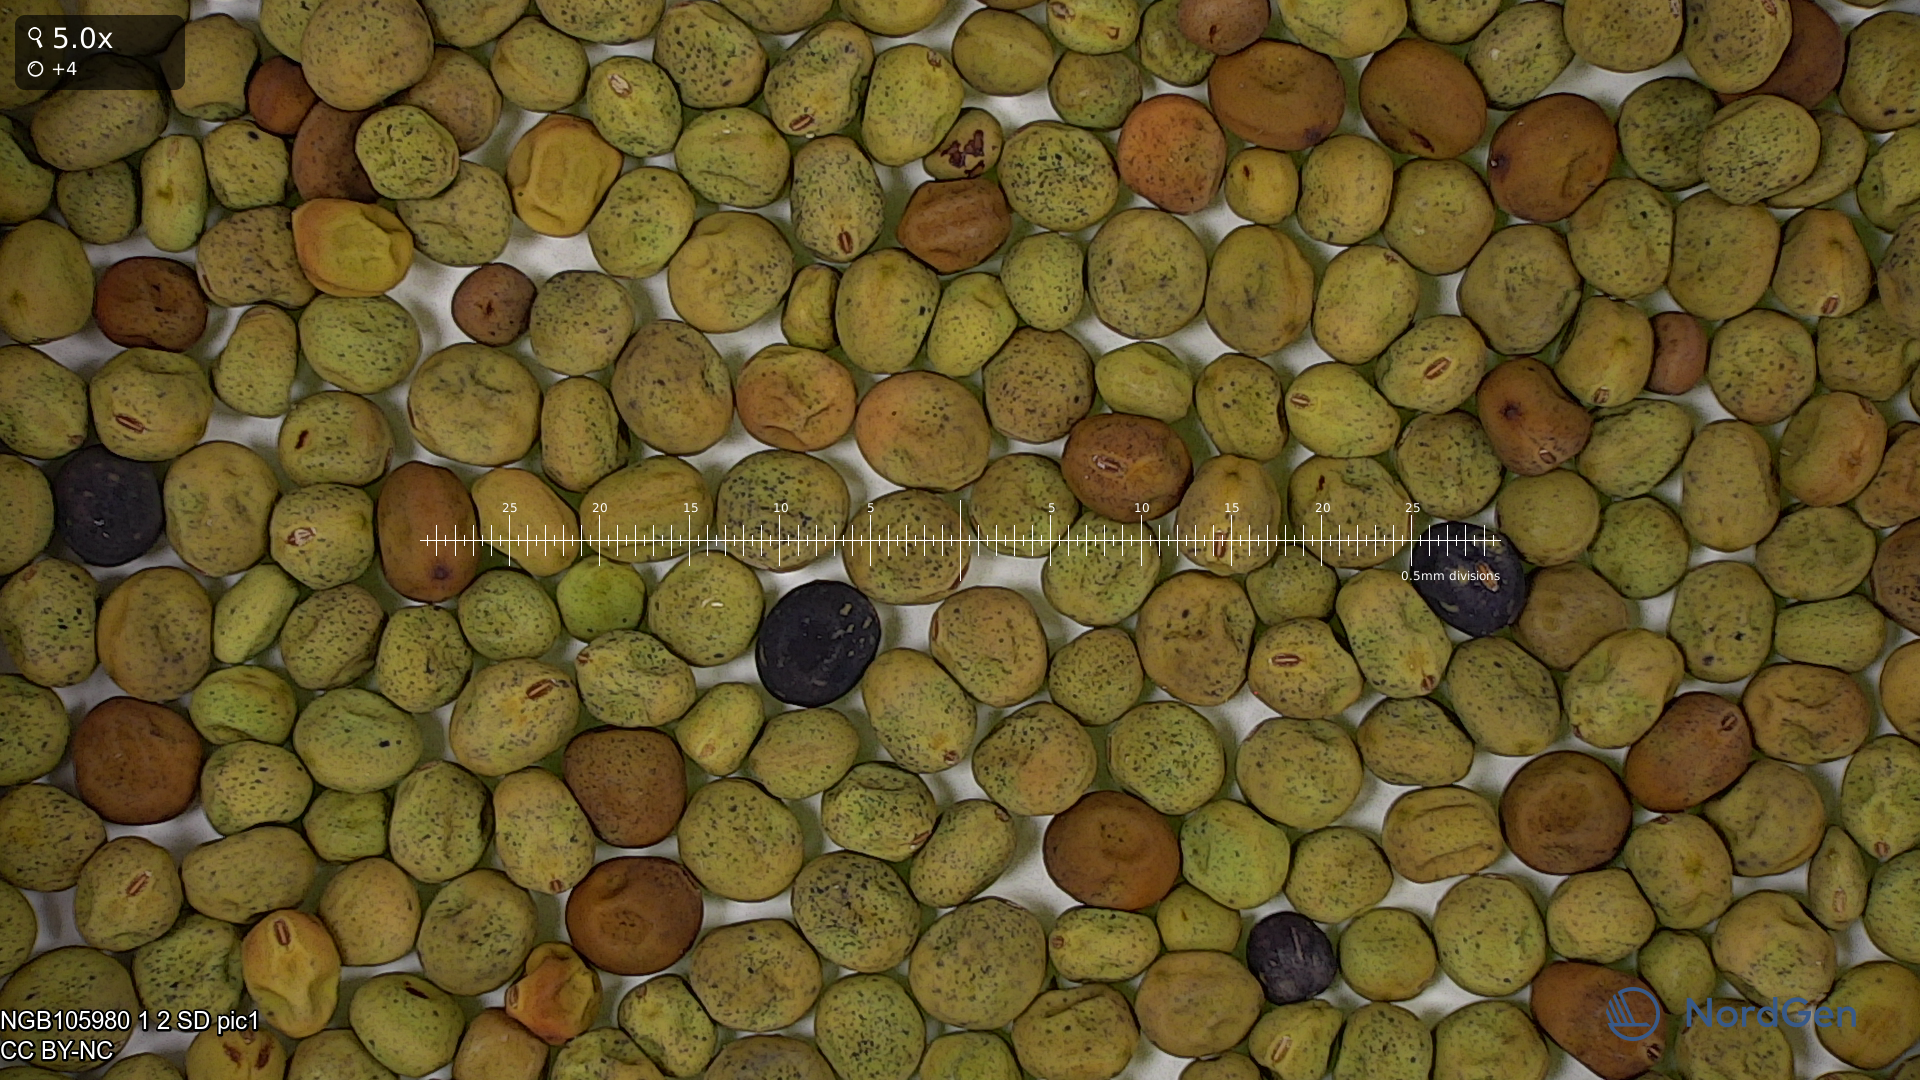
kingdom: Plantae
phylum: Tracheophyta
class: Magnoliopsida
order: Fabales
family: Fabaceae
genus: Lathyrus
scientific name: Lathyrus oleraceus
